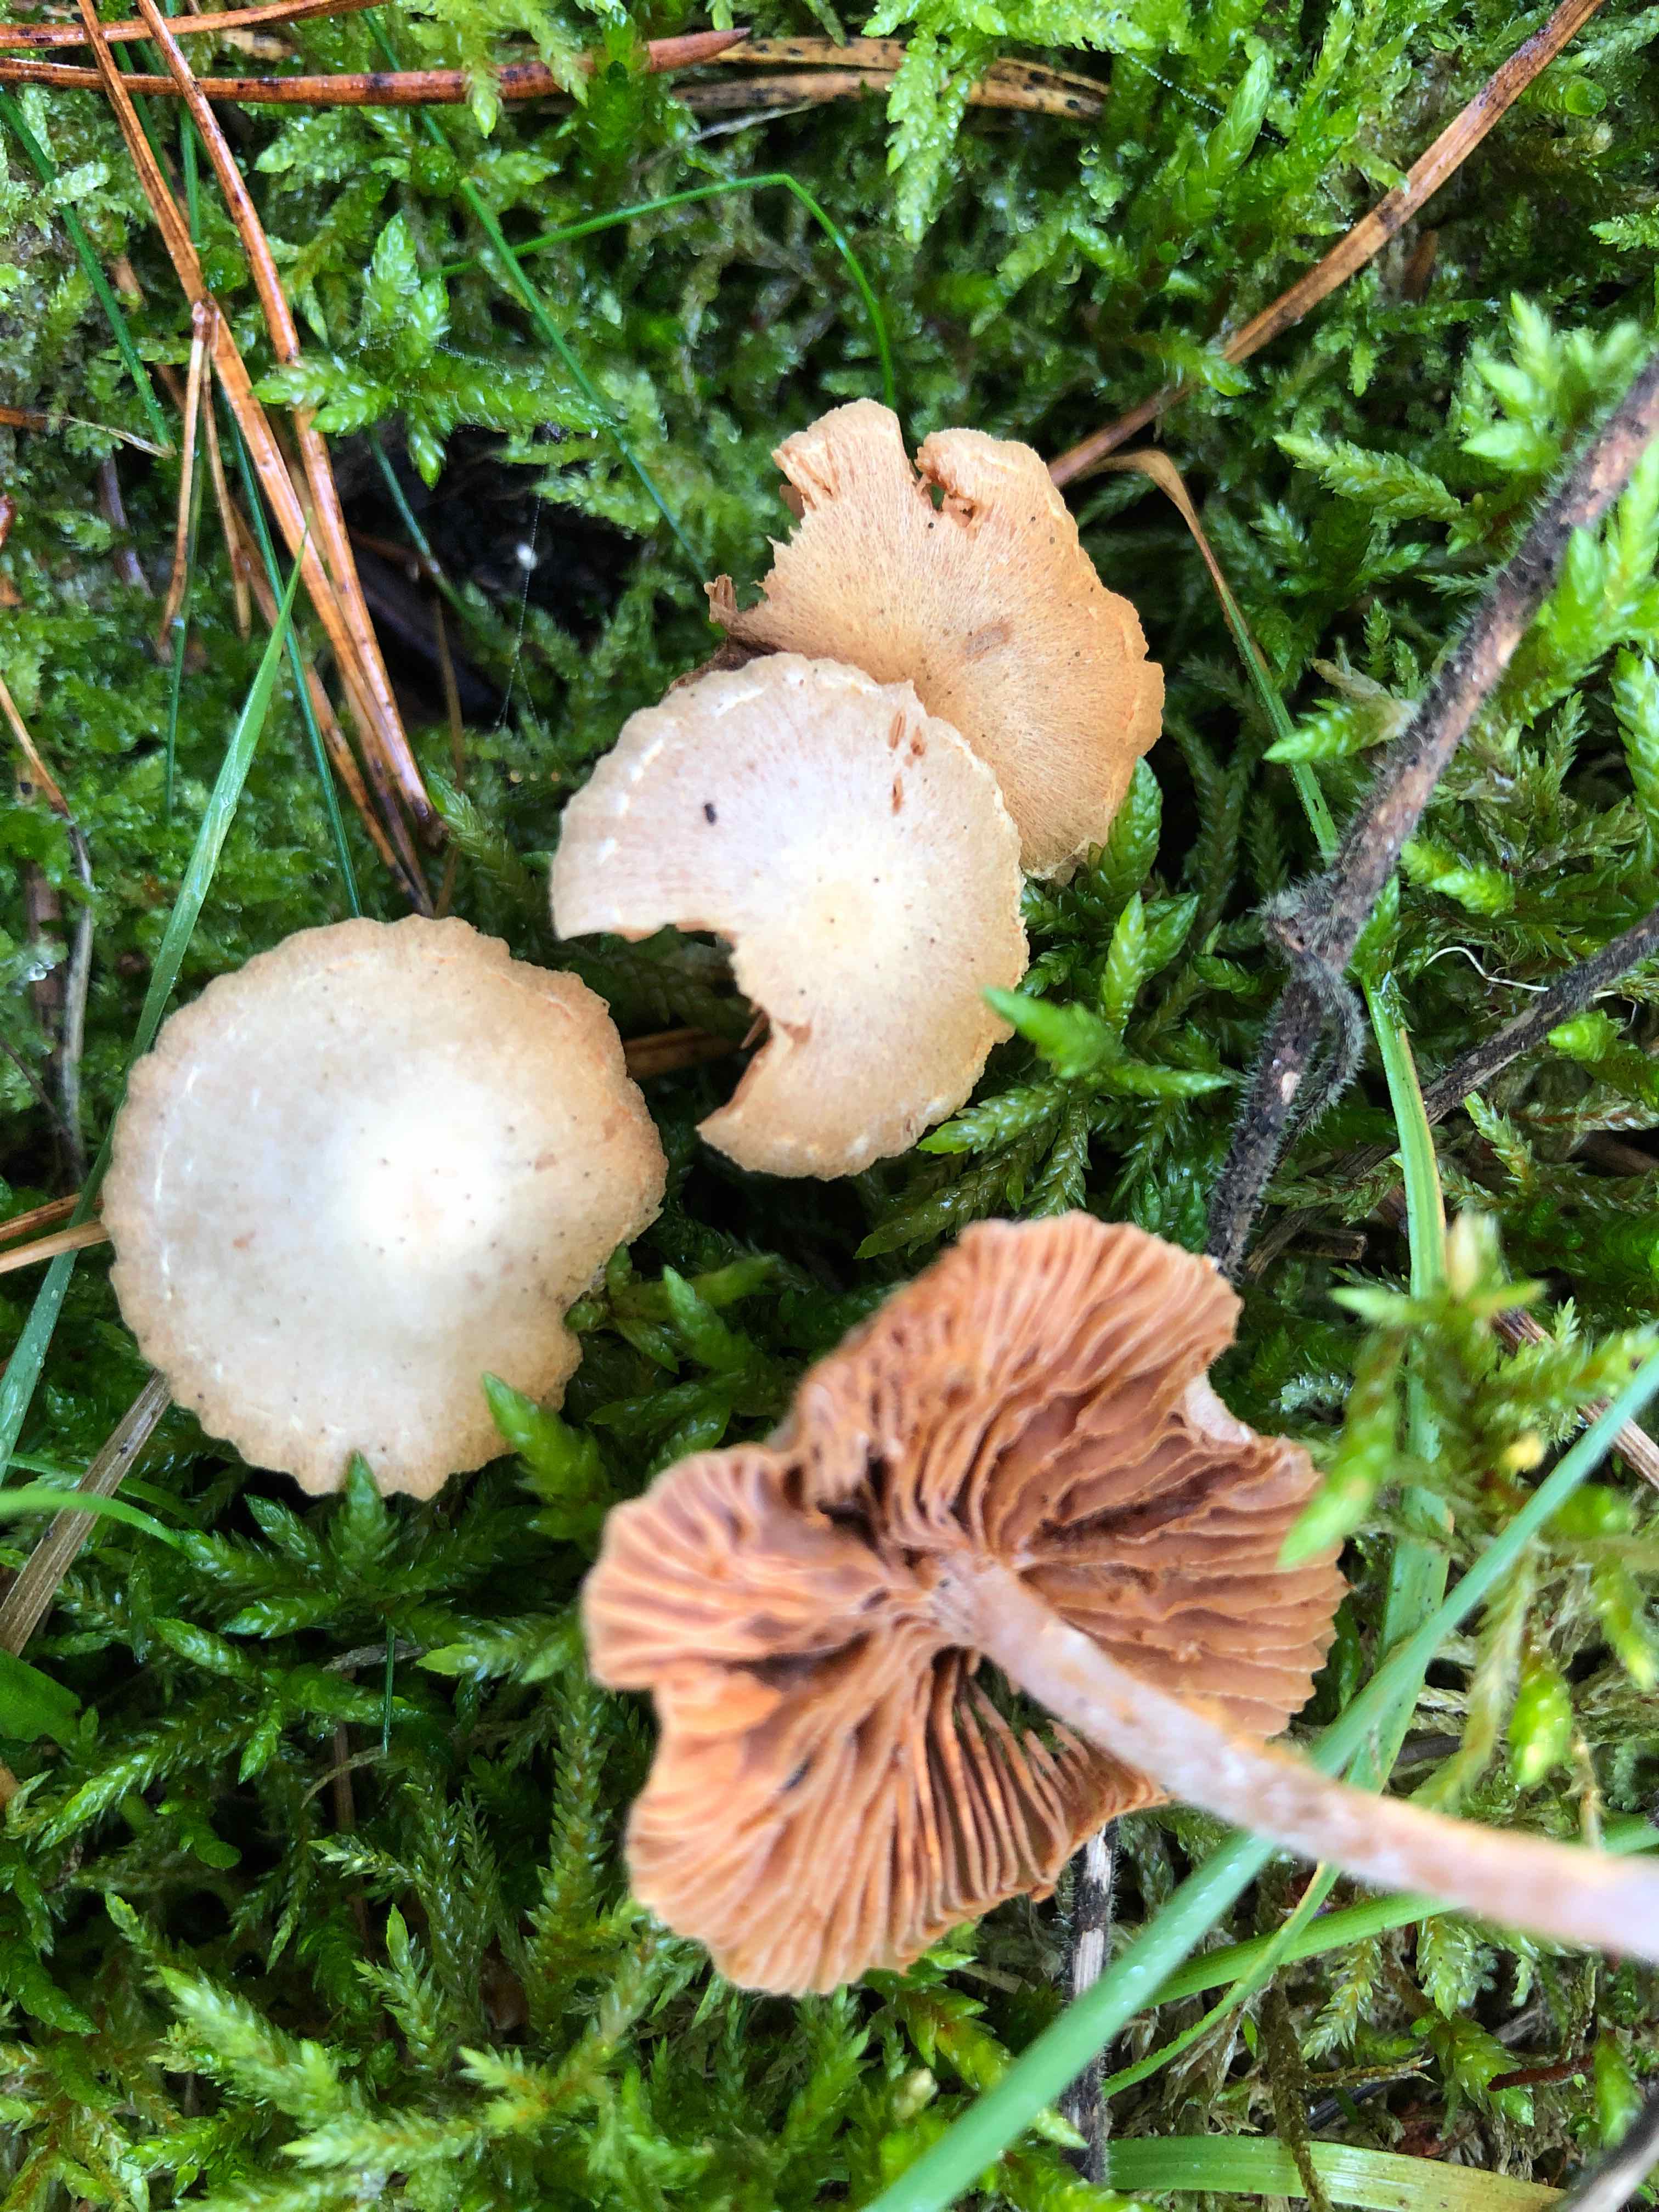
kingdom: Fungi
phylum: Basidiomycota
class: Agaricomycetes
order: Agaricales
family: Tubariaceae
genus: Tubaria
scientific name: Tubaria conspersa
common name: bleg fnughat
